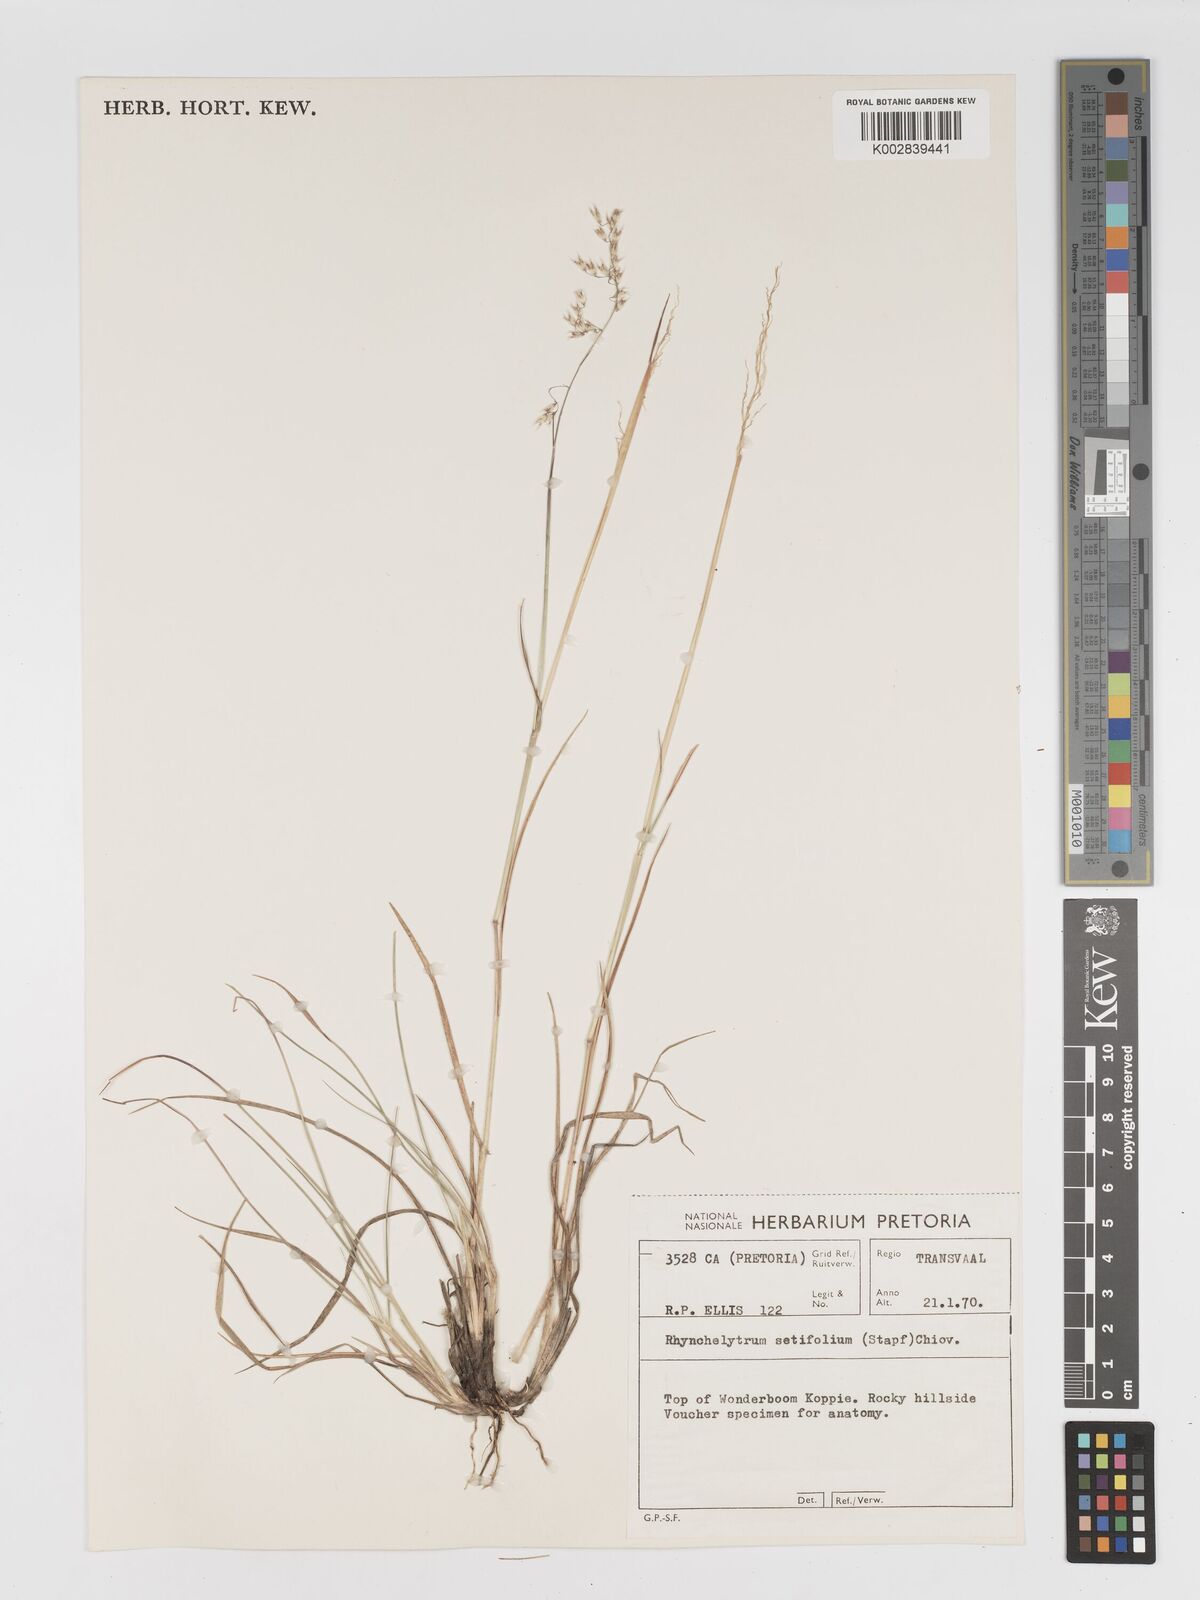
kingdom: Plantae
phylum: Tracheophyta
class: Liliopsida
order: Poales
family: Poaceae
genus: Melinis
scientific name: Melinis nerviglumis
